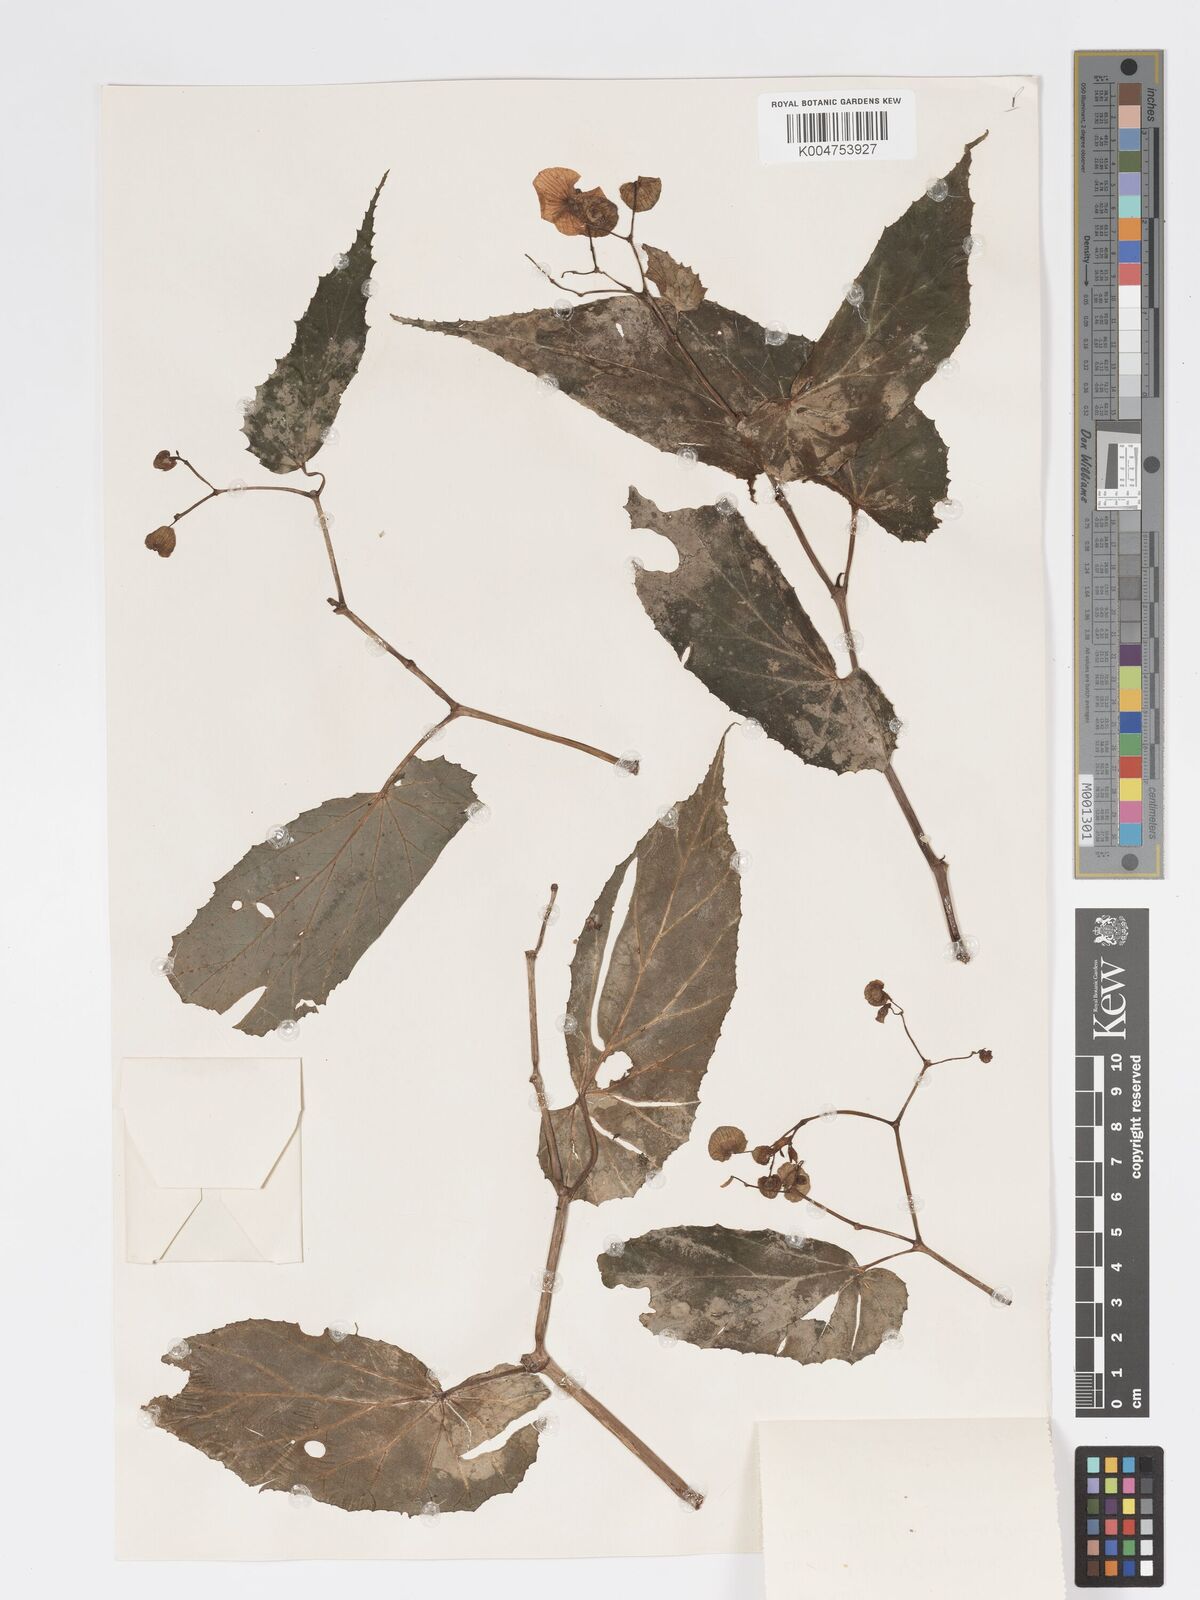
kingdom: Plantae
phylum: Tracheophyta
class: Magnoliopsida
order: Cucurbitales
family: Begoniaceae
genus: Begonia
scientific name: Begonia wollastonii
